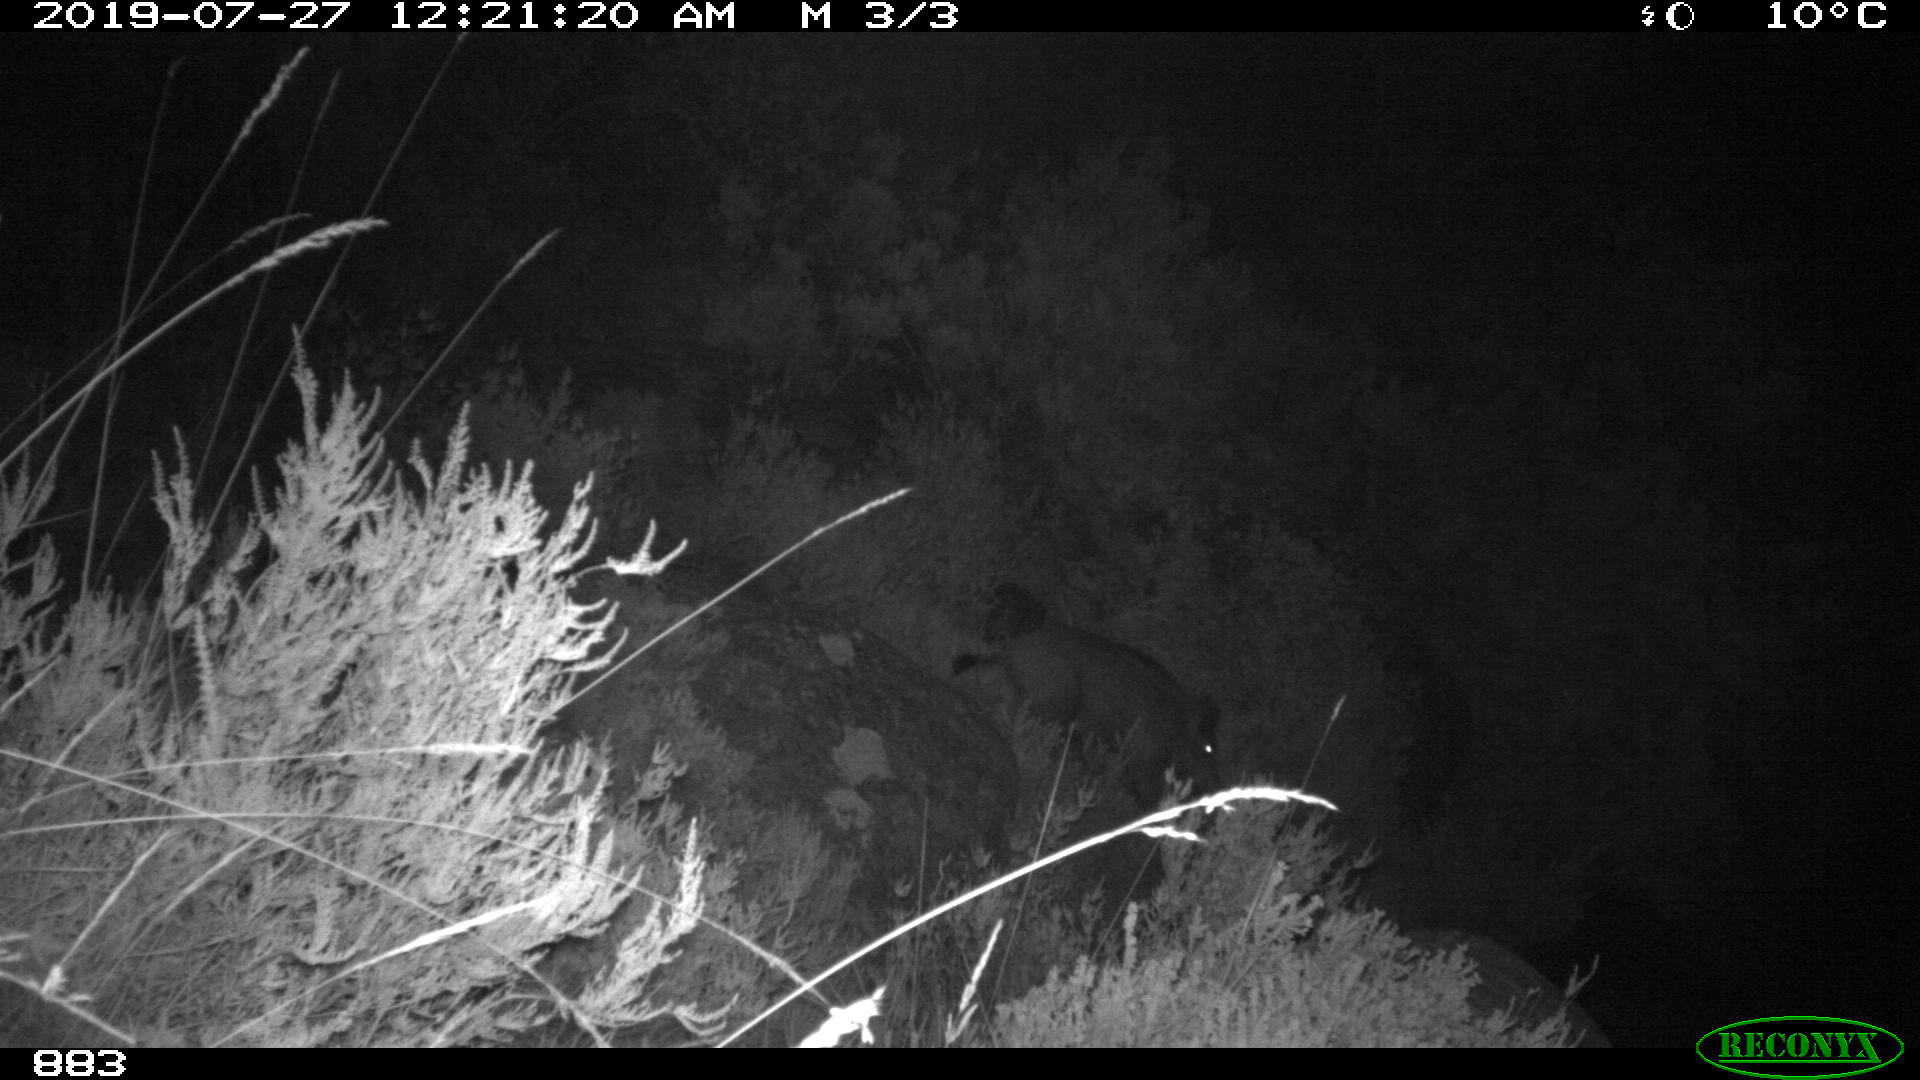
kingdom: Animalia
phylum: Chordata
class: Mammalia
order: Artiodactyla
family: Suidae
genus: Sus
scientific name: Sus scrofa
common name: Wild boar
